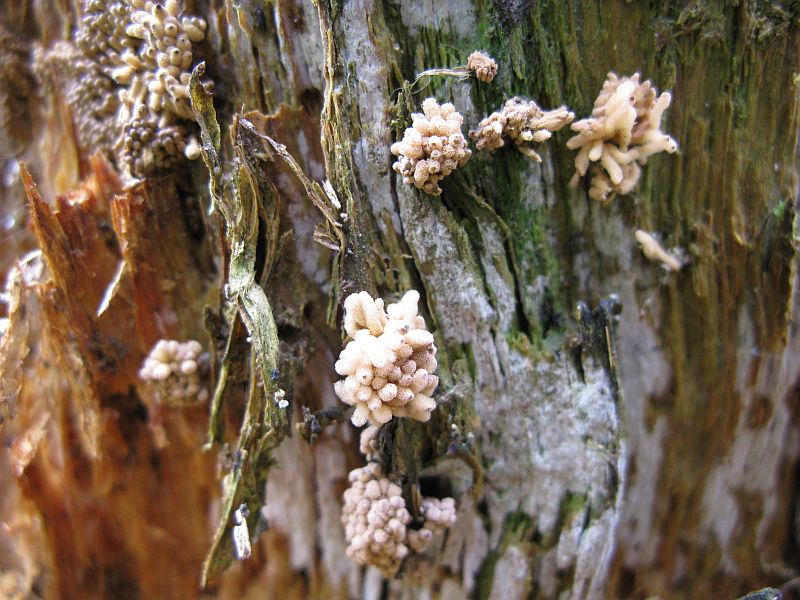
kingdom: Protozoa
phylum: Mycetozoa
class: Myxomycetes
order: Trichiales
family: Arcyriaceae
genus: Arcyria
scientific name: Arcyria obvelata
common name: okkergul skålsvøb
